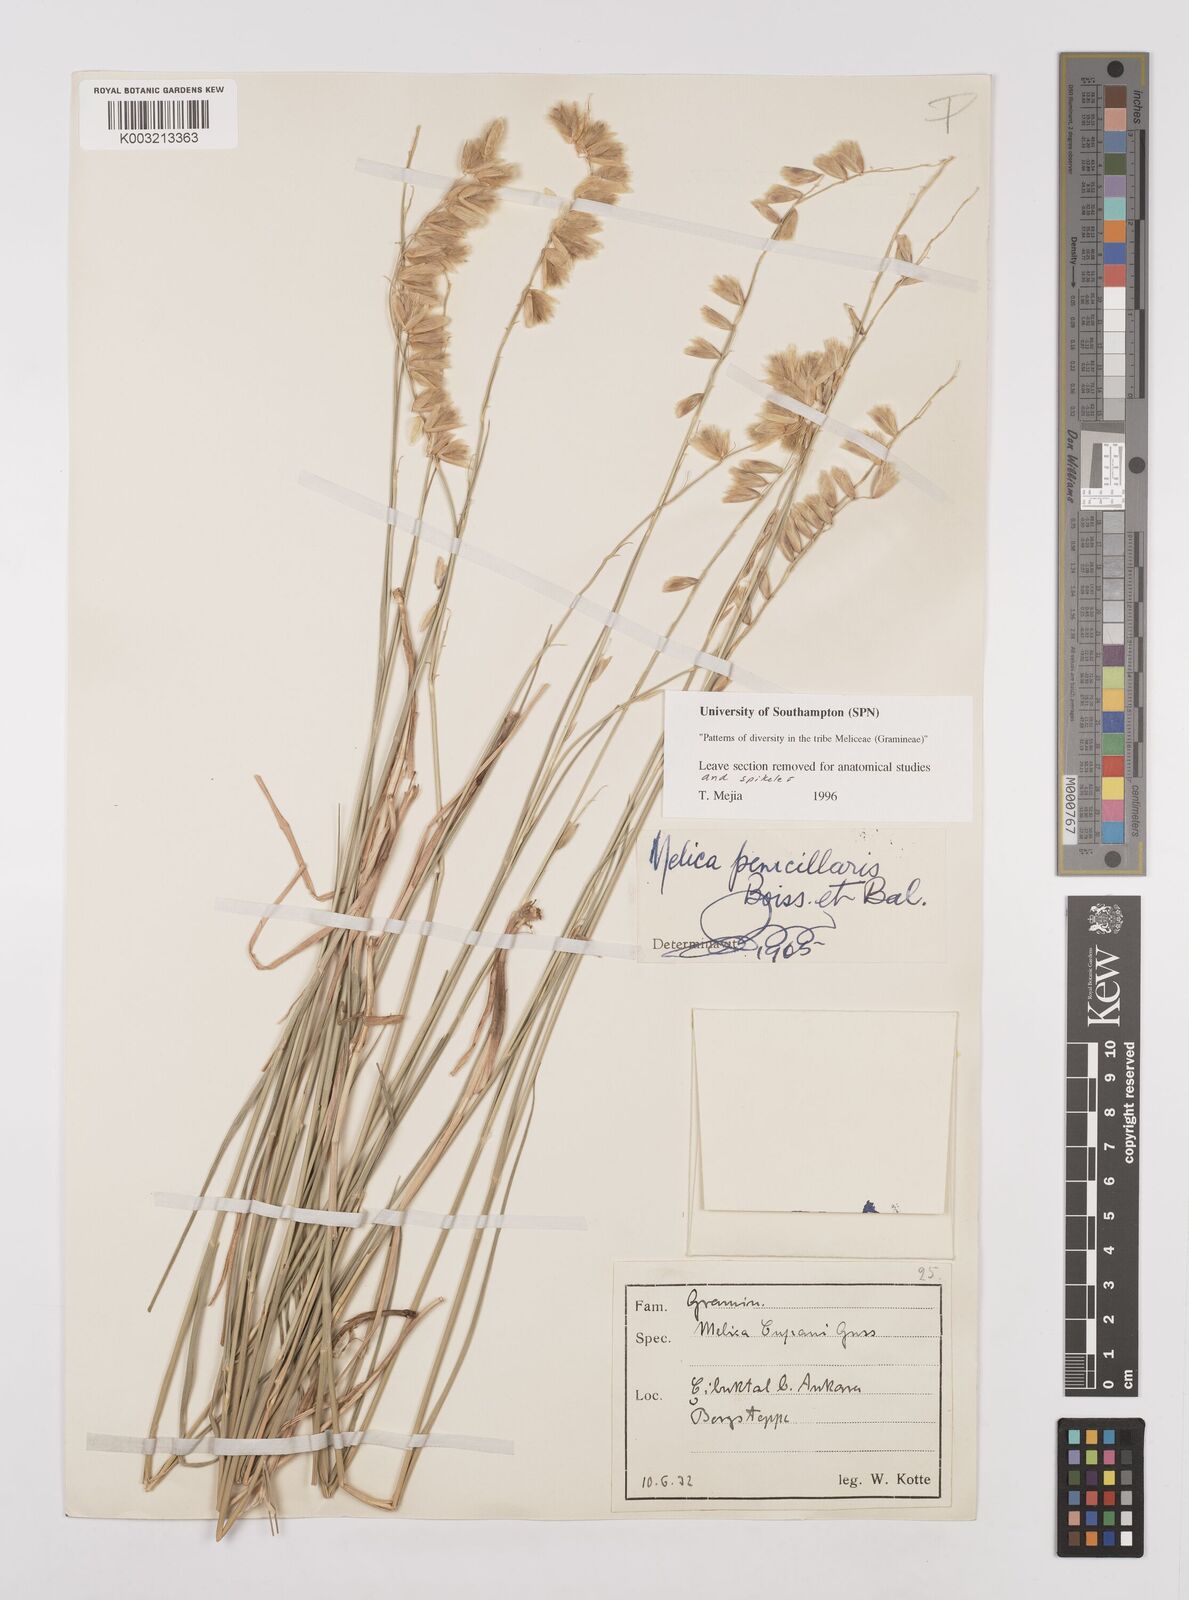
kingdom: Plantae
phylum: Tracheophyta
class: Liliopsida
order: Poales
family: Poaceae
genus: Melica
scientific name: Melica penicillaris
